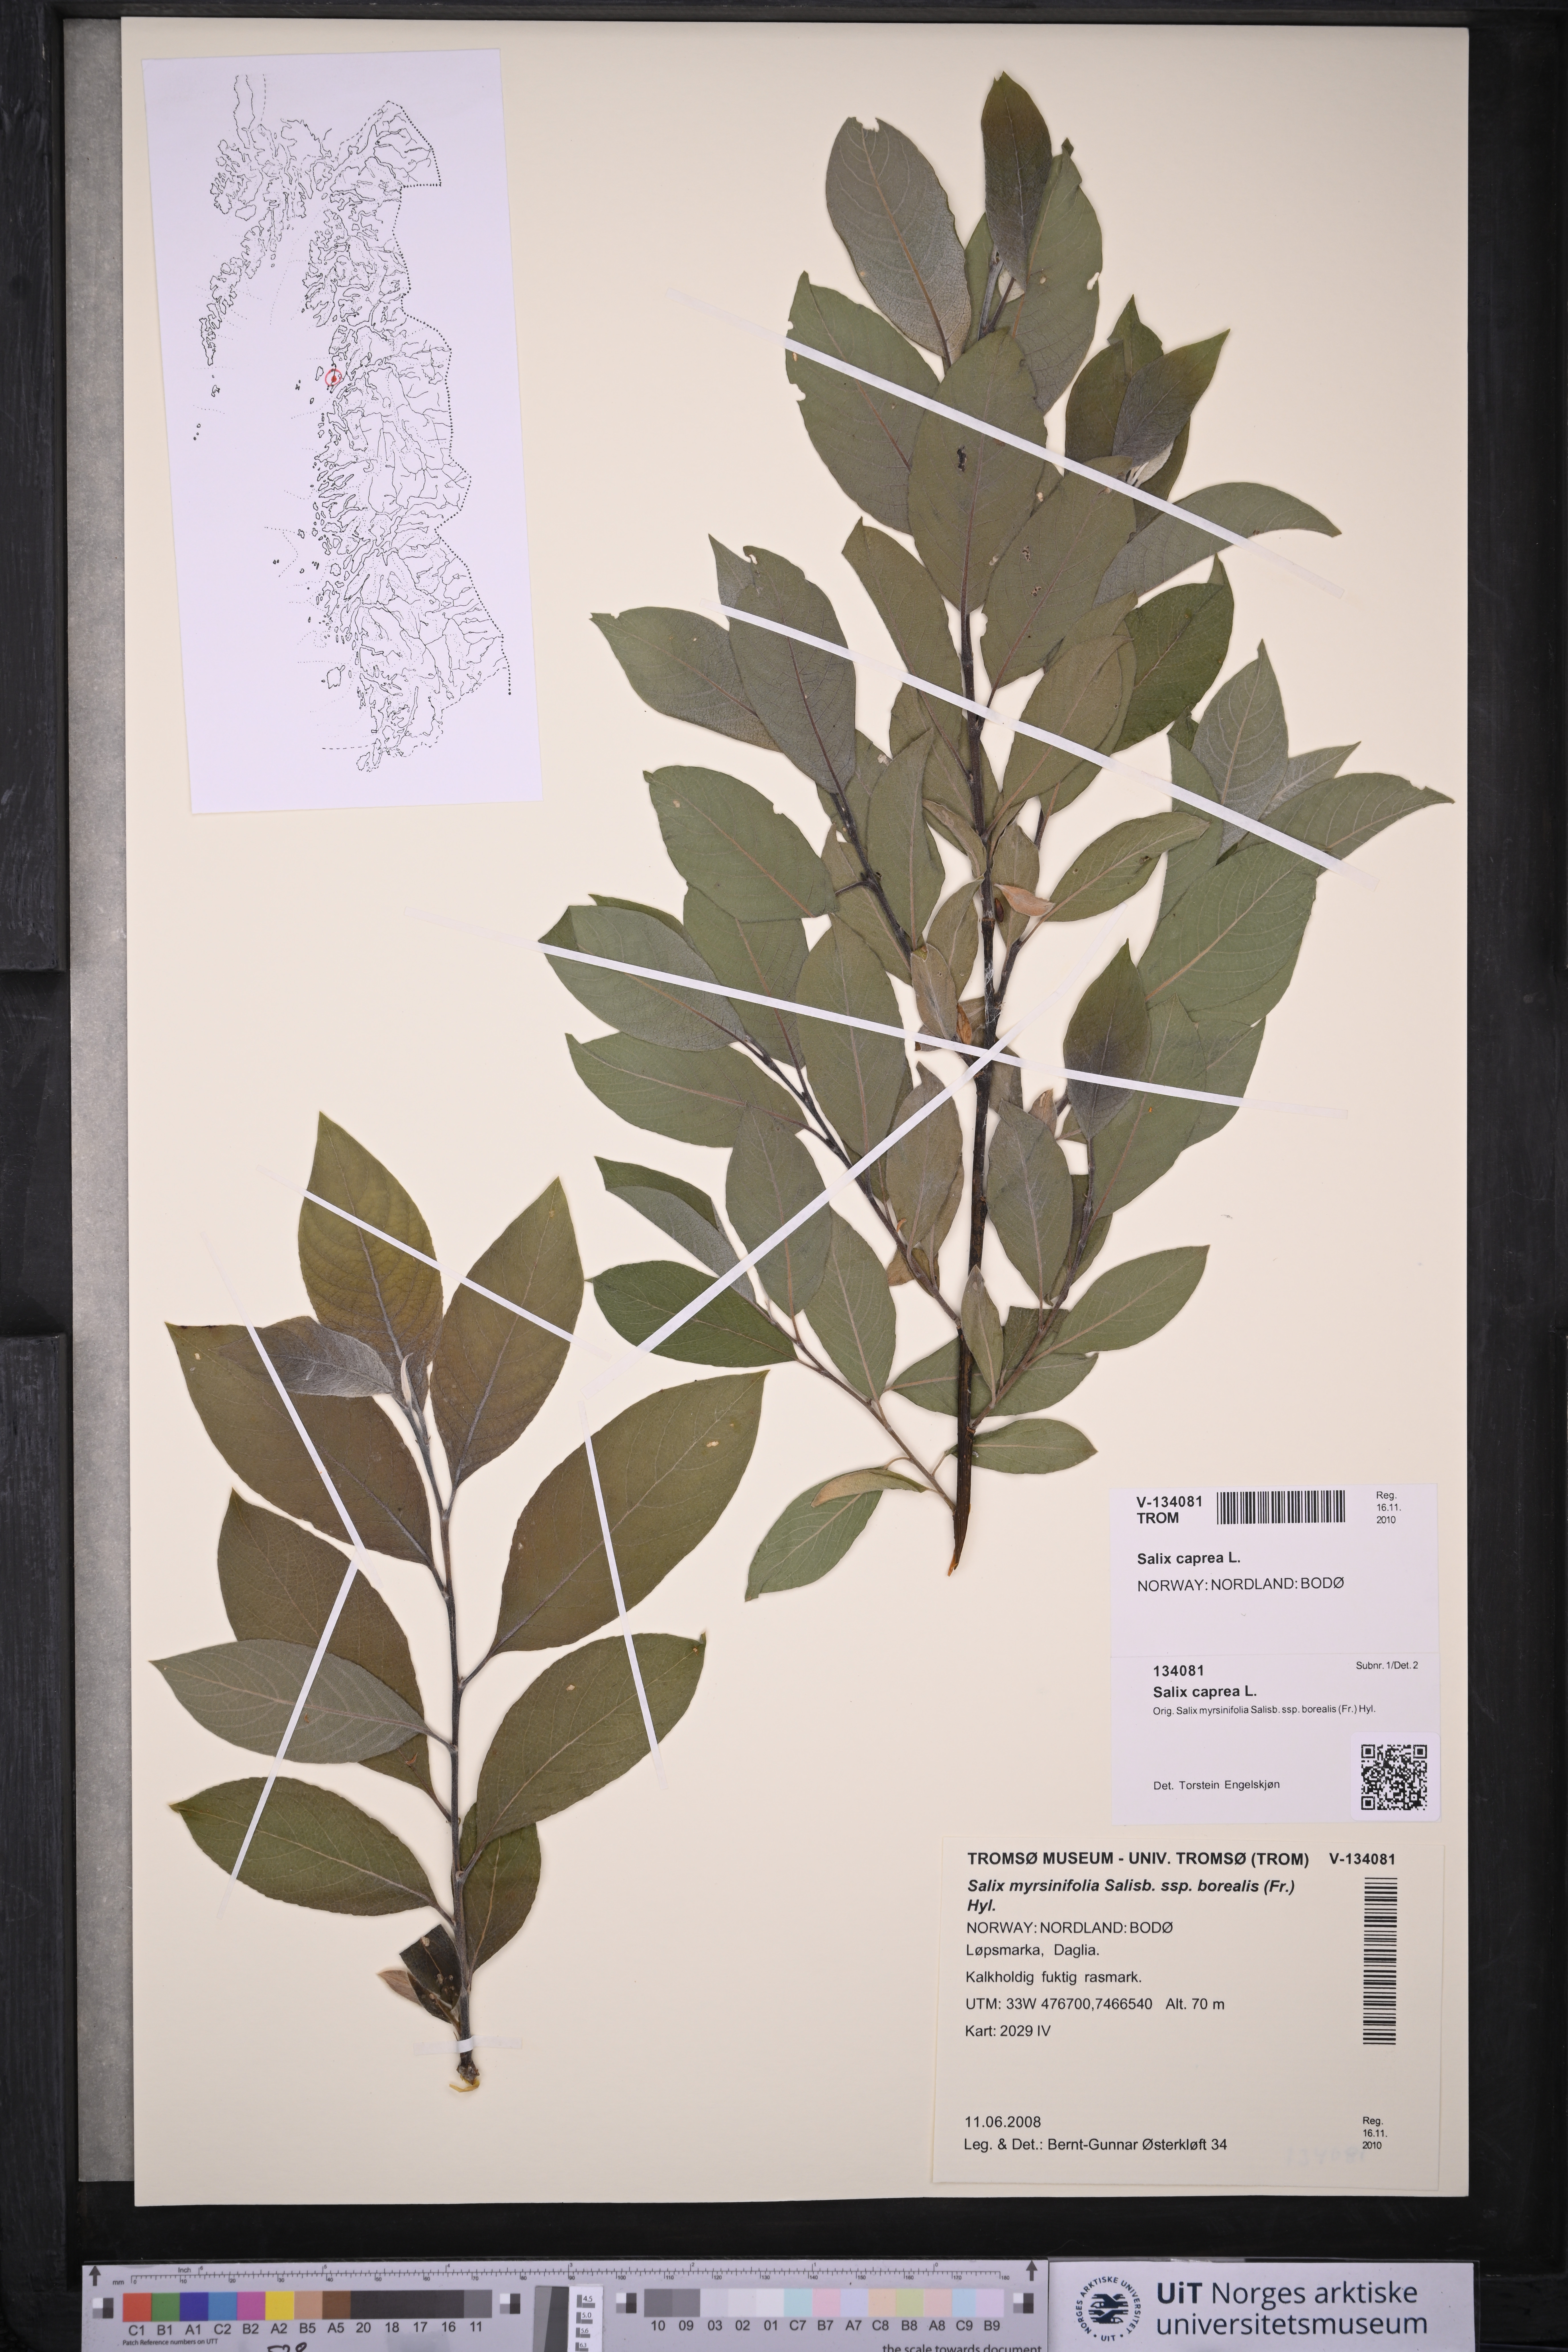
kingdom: Plantae
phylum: Tracheophyta
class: Magnoliopsida
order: Malpighiales
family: Salicaceae
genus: Salix
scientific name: Salix caprea
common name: Goat willow
